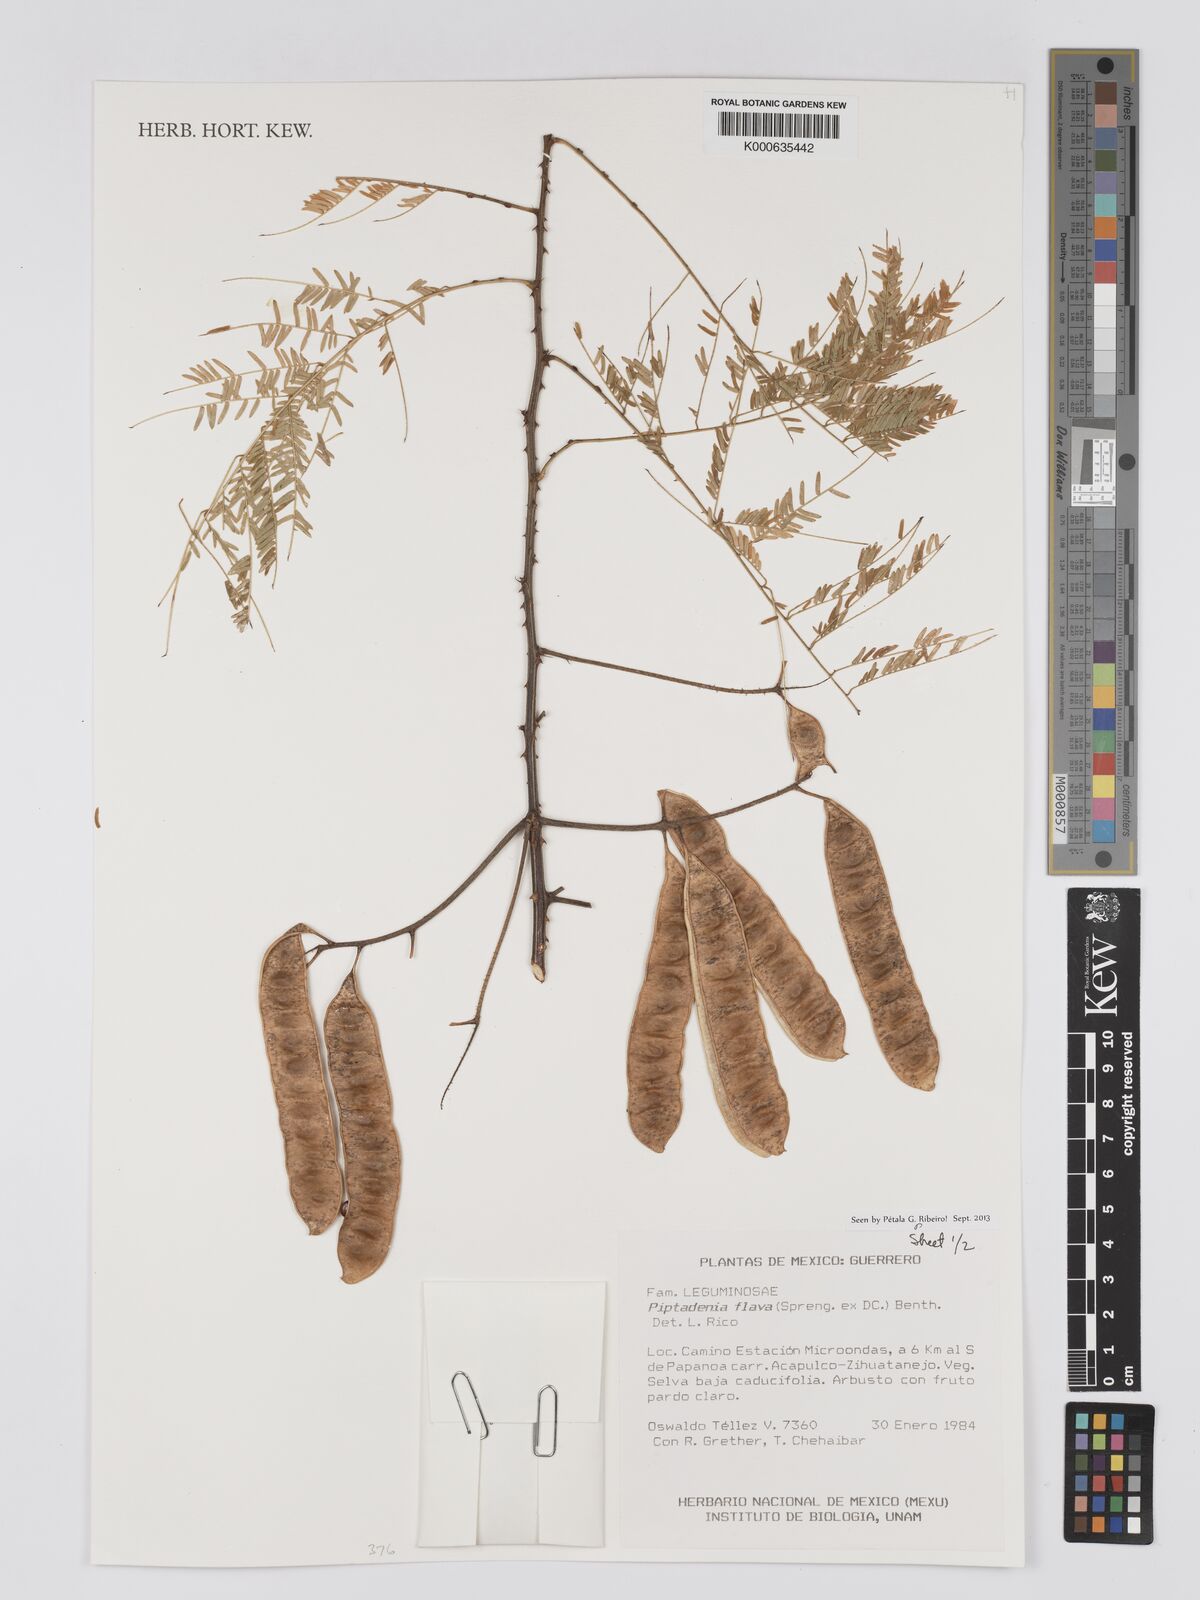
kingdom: Plantae
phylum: Tracheophyta
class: Magnoliopsida
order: Fabales
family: Fabaceae
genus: Piptadenia
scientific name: Piptadenia retusa
